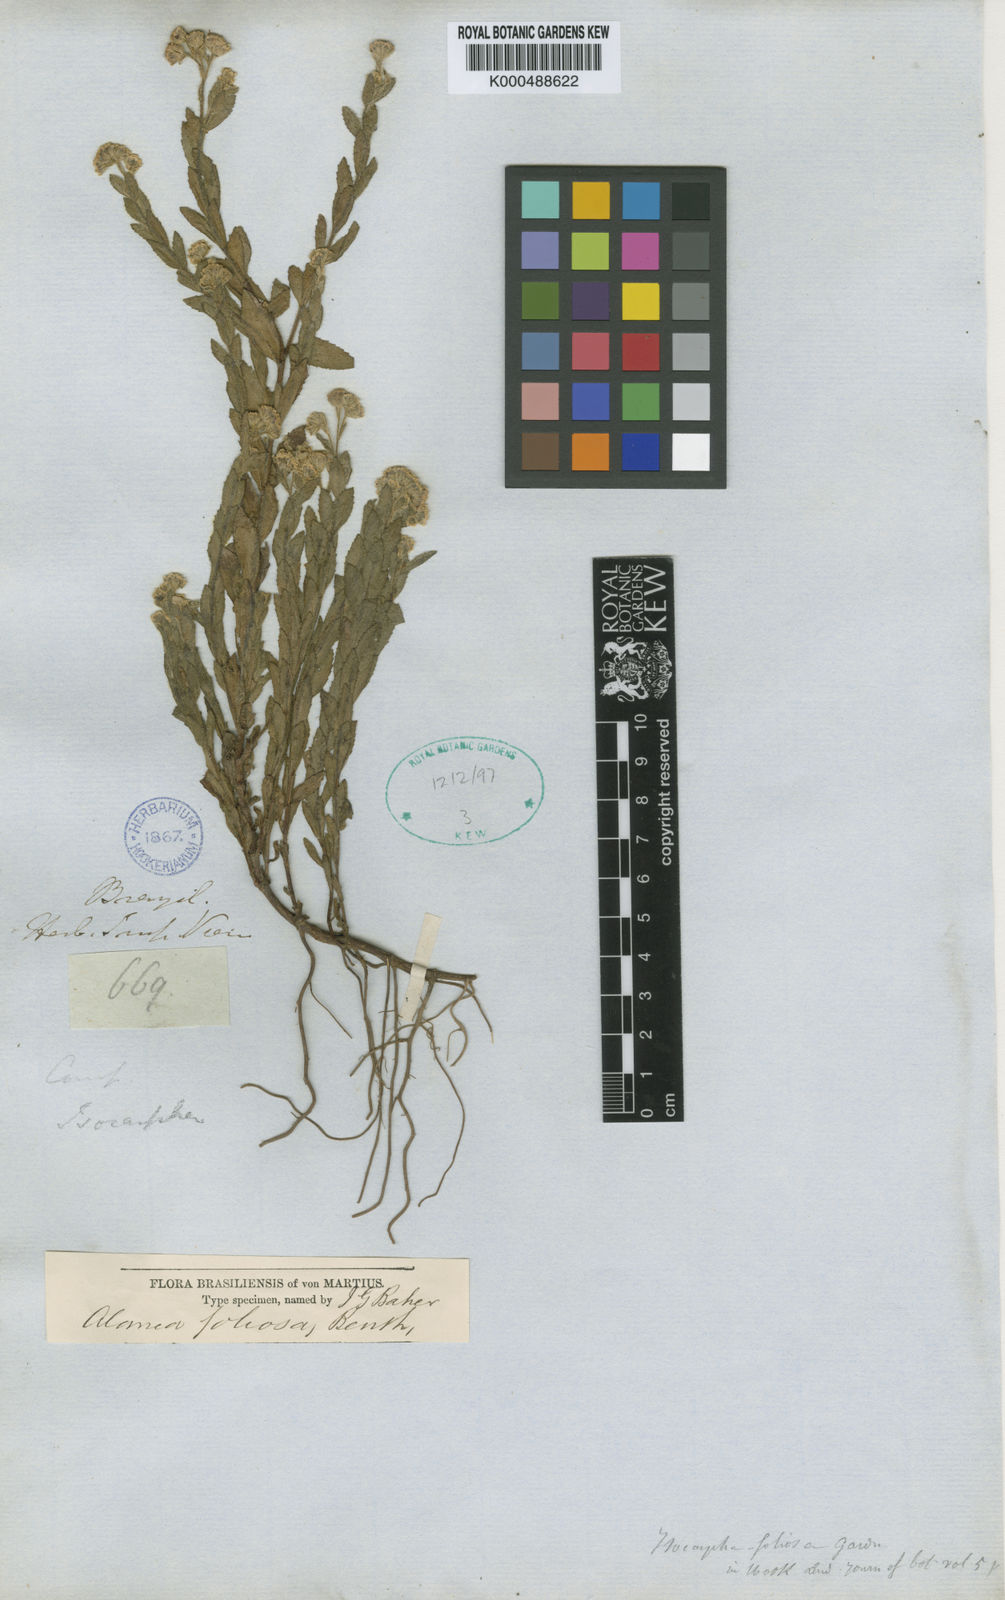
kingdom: Plantae
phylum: Tracheophyta
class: Magnoliopsida
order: Asterales
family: Asteraceae
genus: Teixeiranthus
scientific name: Teixeiranthus foliosus
